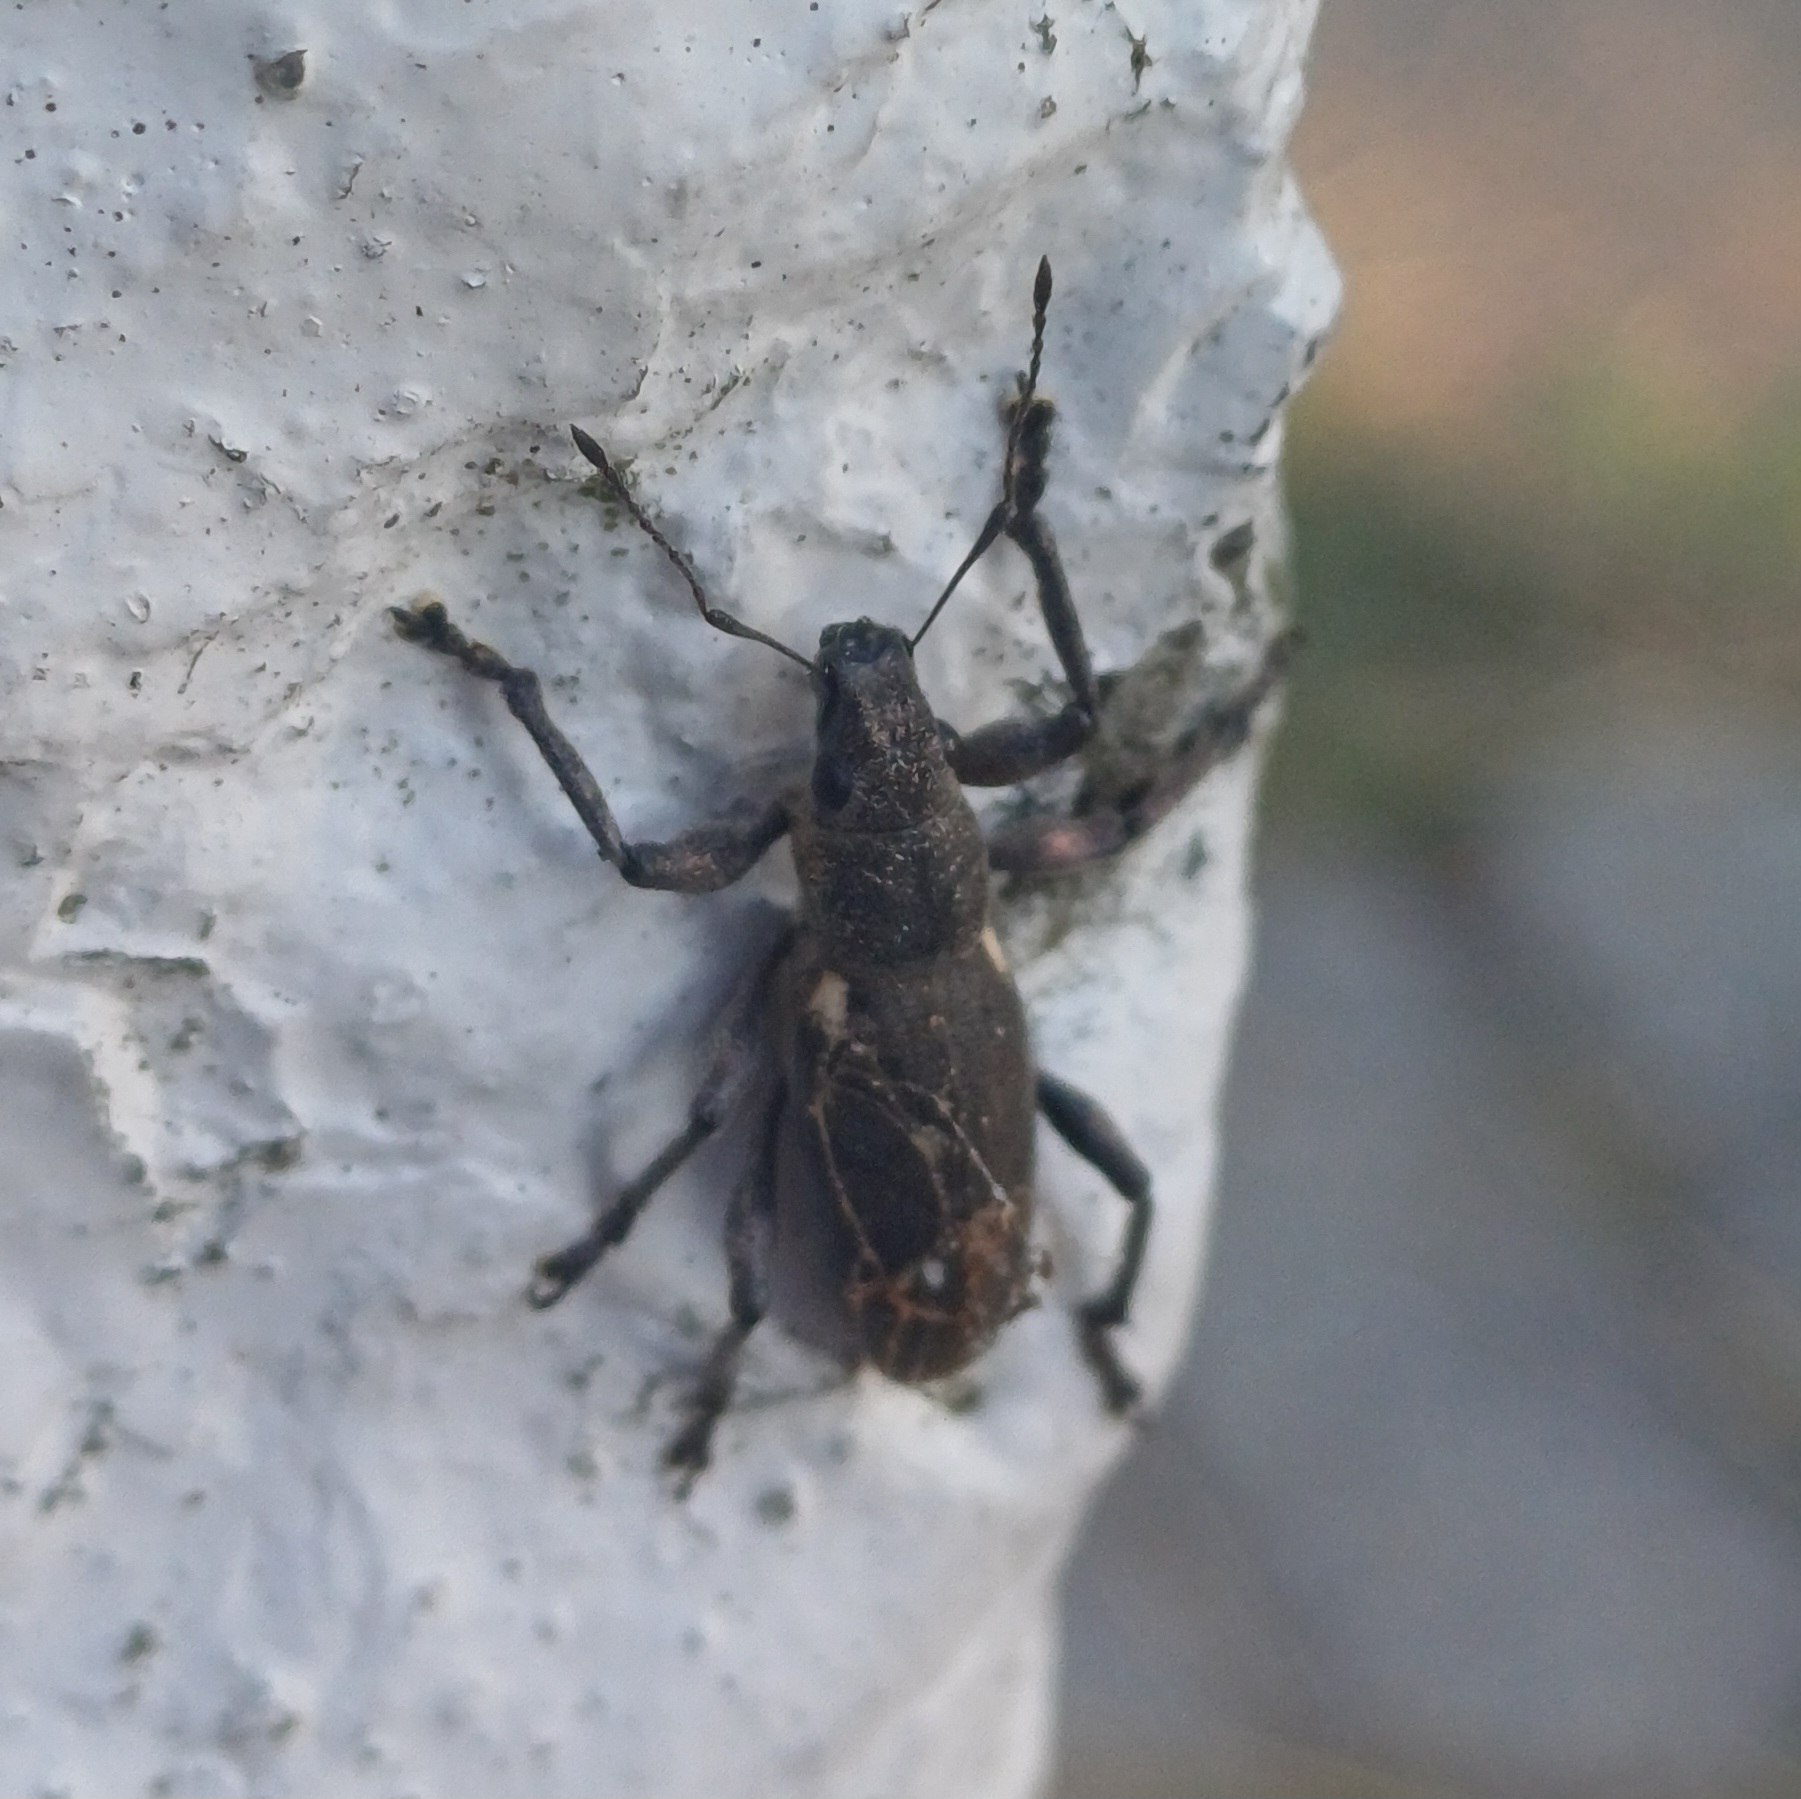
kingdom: Animalia
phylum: Arthropoda
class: Insecta
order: Coleoptera
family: Curculionidae
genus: Brachyderes
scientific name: Brachyderes lusitanicus
